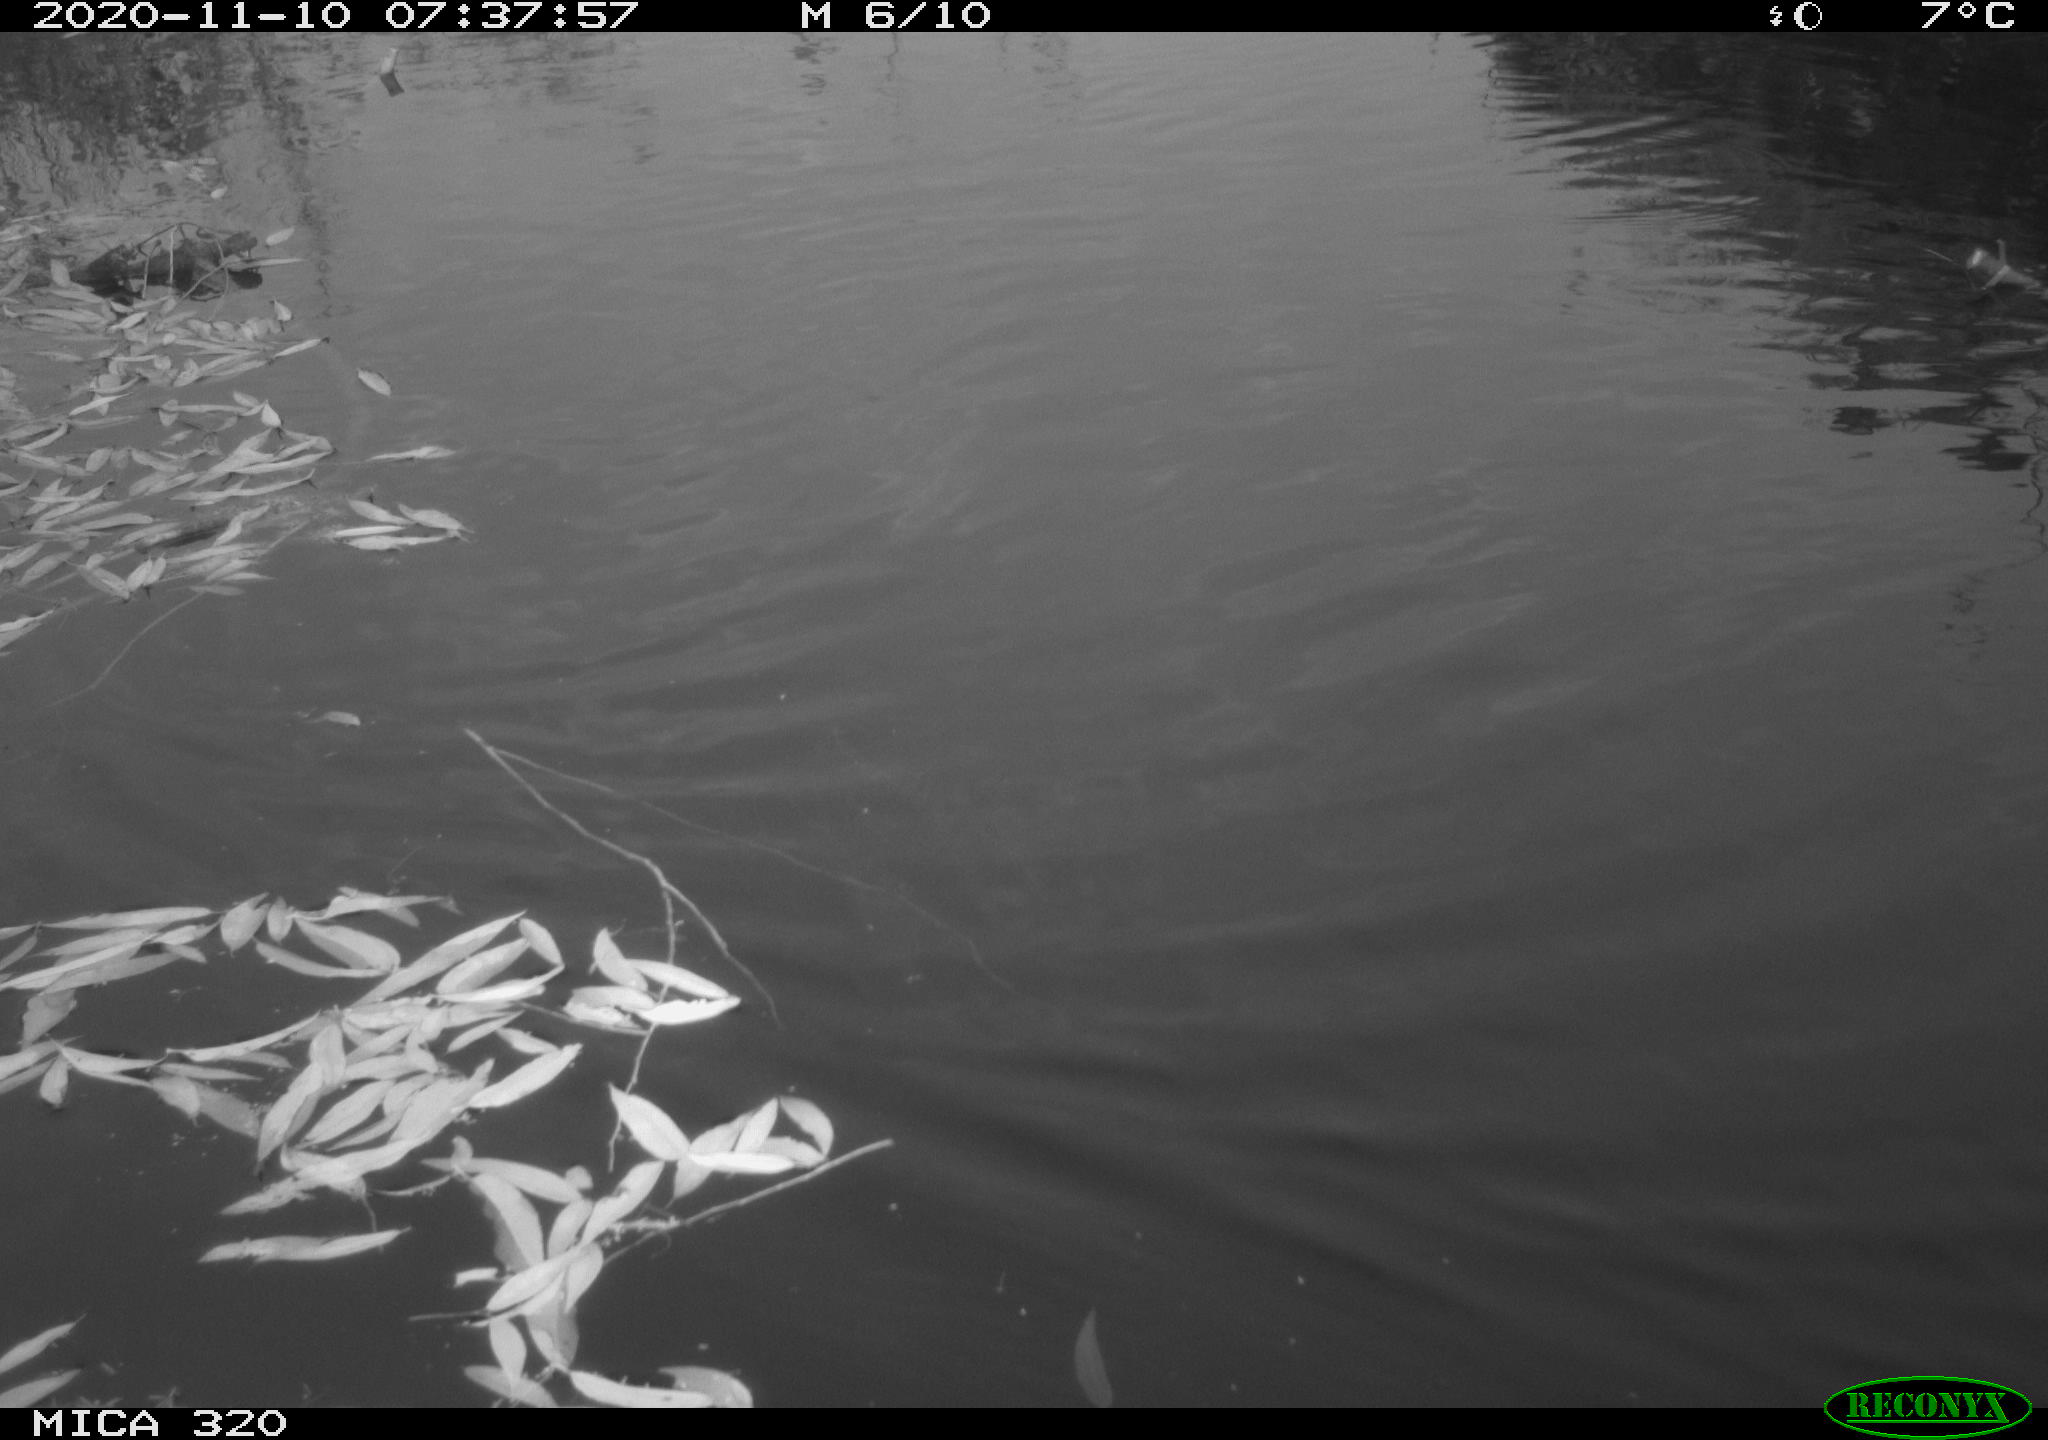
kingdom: Animalia
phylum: Chordata
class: Aves
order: Gruiformes
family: Rallidae
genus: Gallinula
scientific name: Gallinula chloropus
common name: Common moorhen
